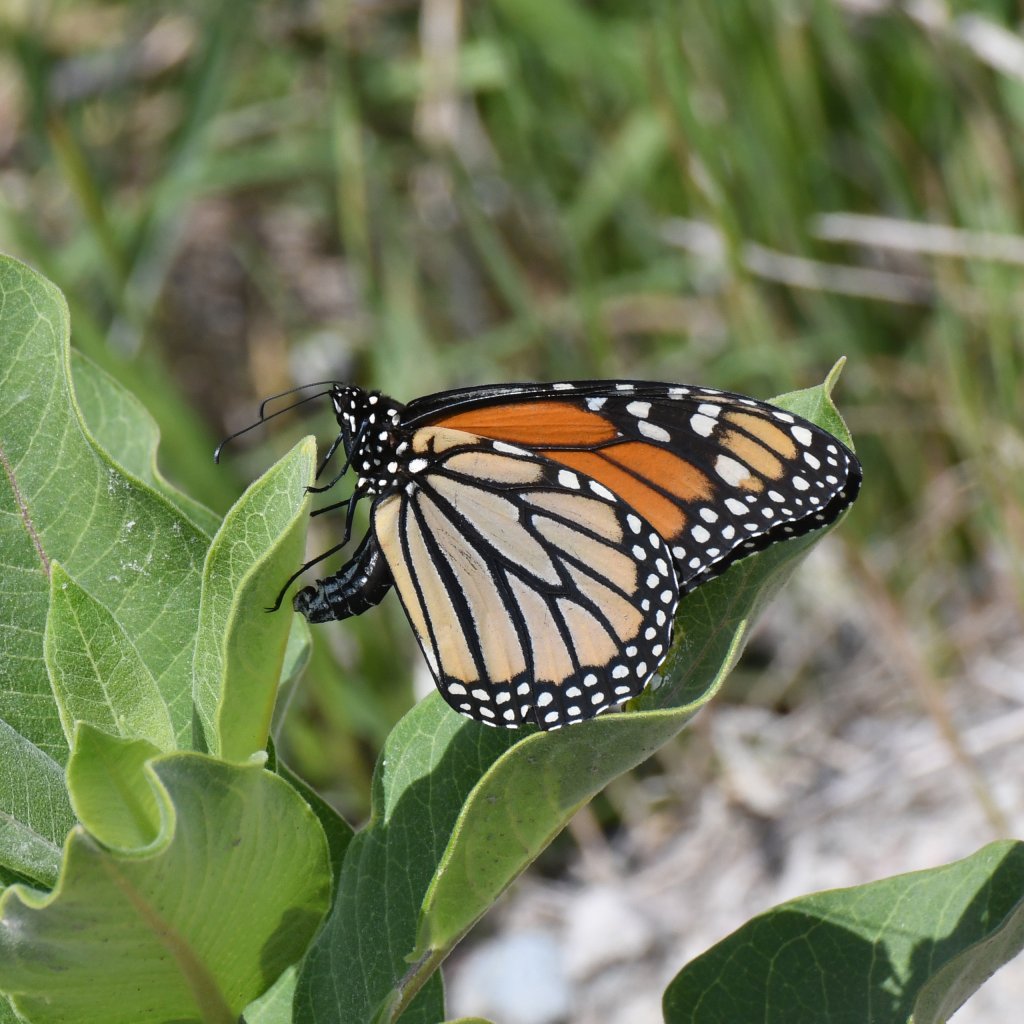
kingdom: Animalia
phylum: Arthropoda
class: Insecta
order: Lepidoptera
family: Nymphalidae
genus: Danaus
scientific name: Danaus plexippus
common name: Monarch
